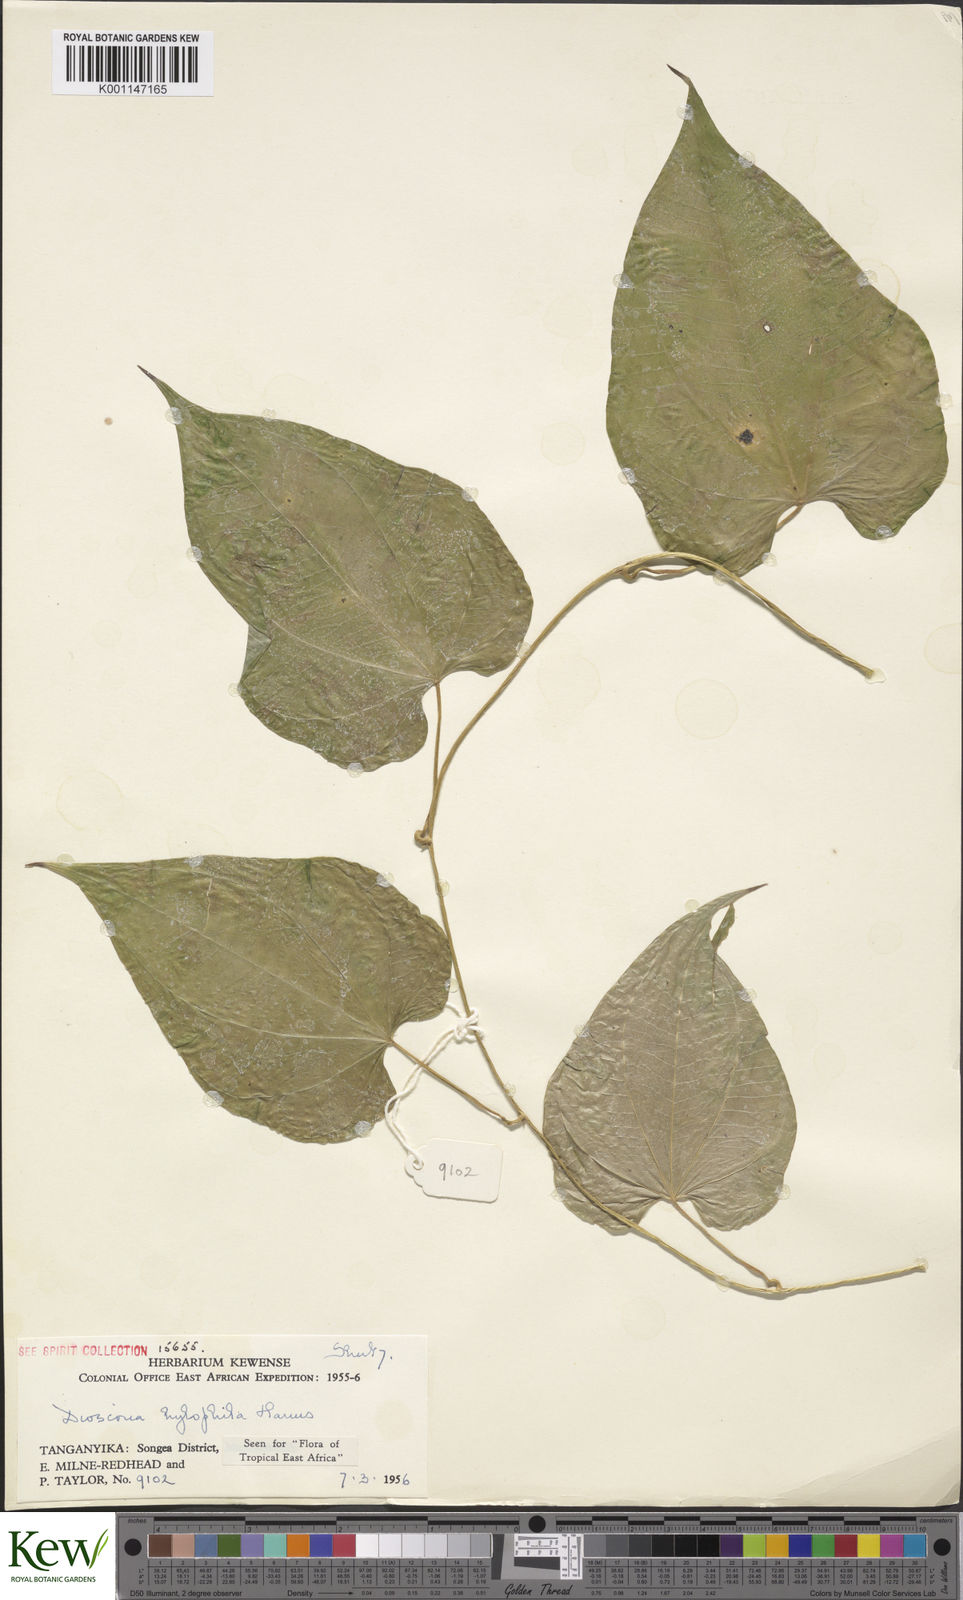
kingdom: Plantae
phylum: Tracheophyta
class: Liliopsida
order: Dioscoreales
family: Dioscoreaceae
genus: Dioscorea
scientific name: Dioscorea
